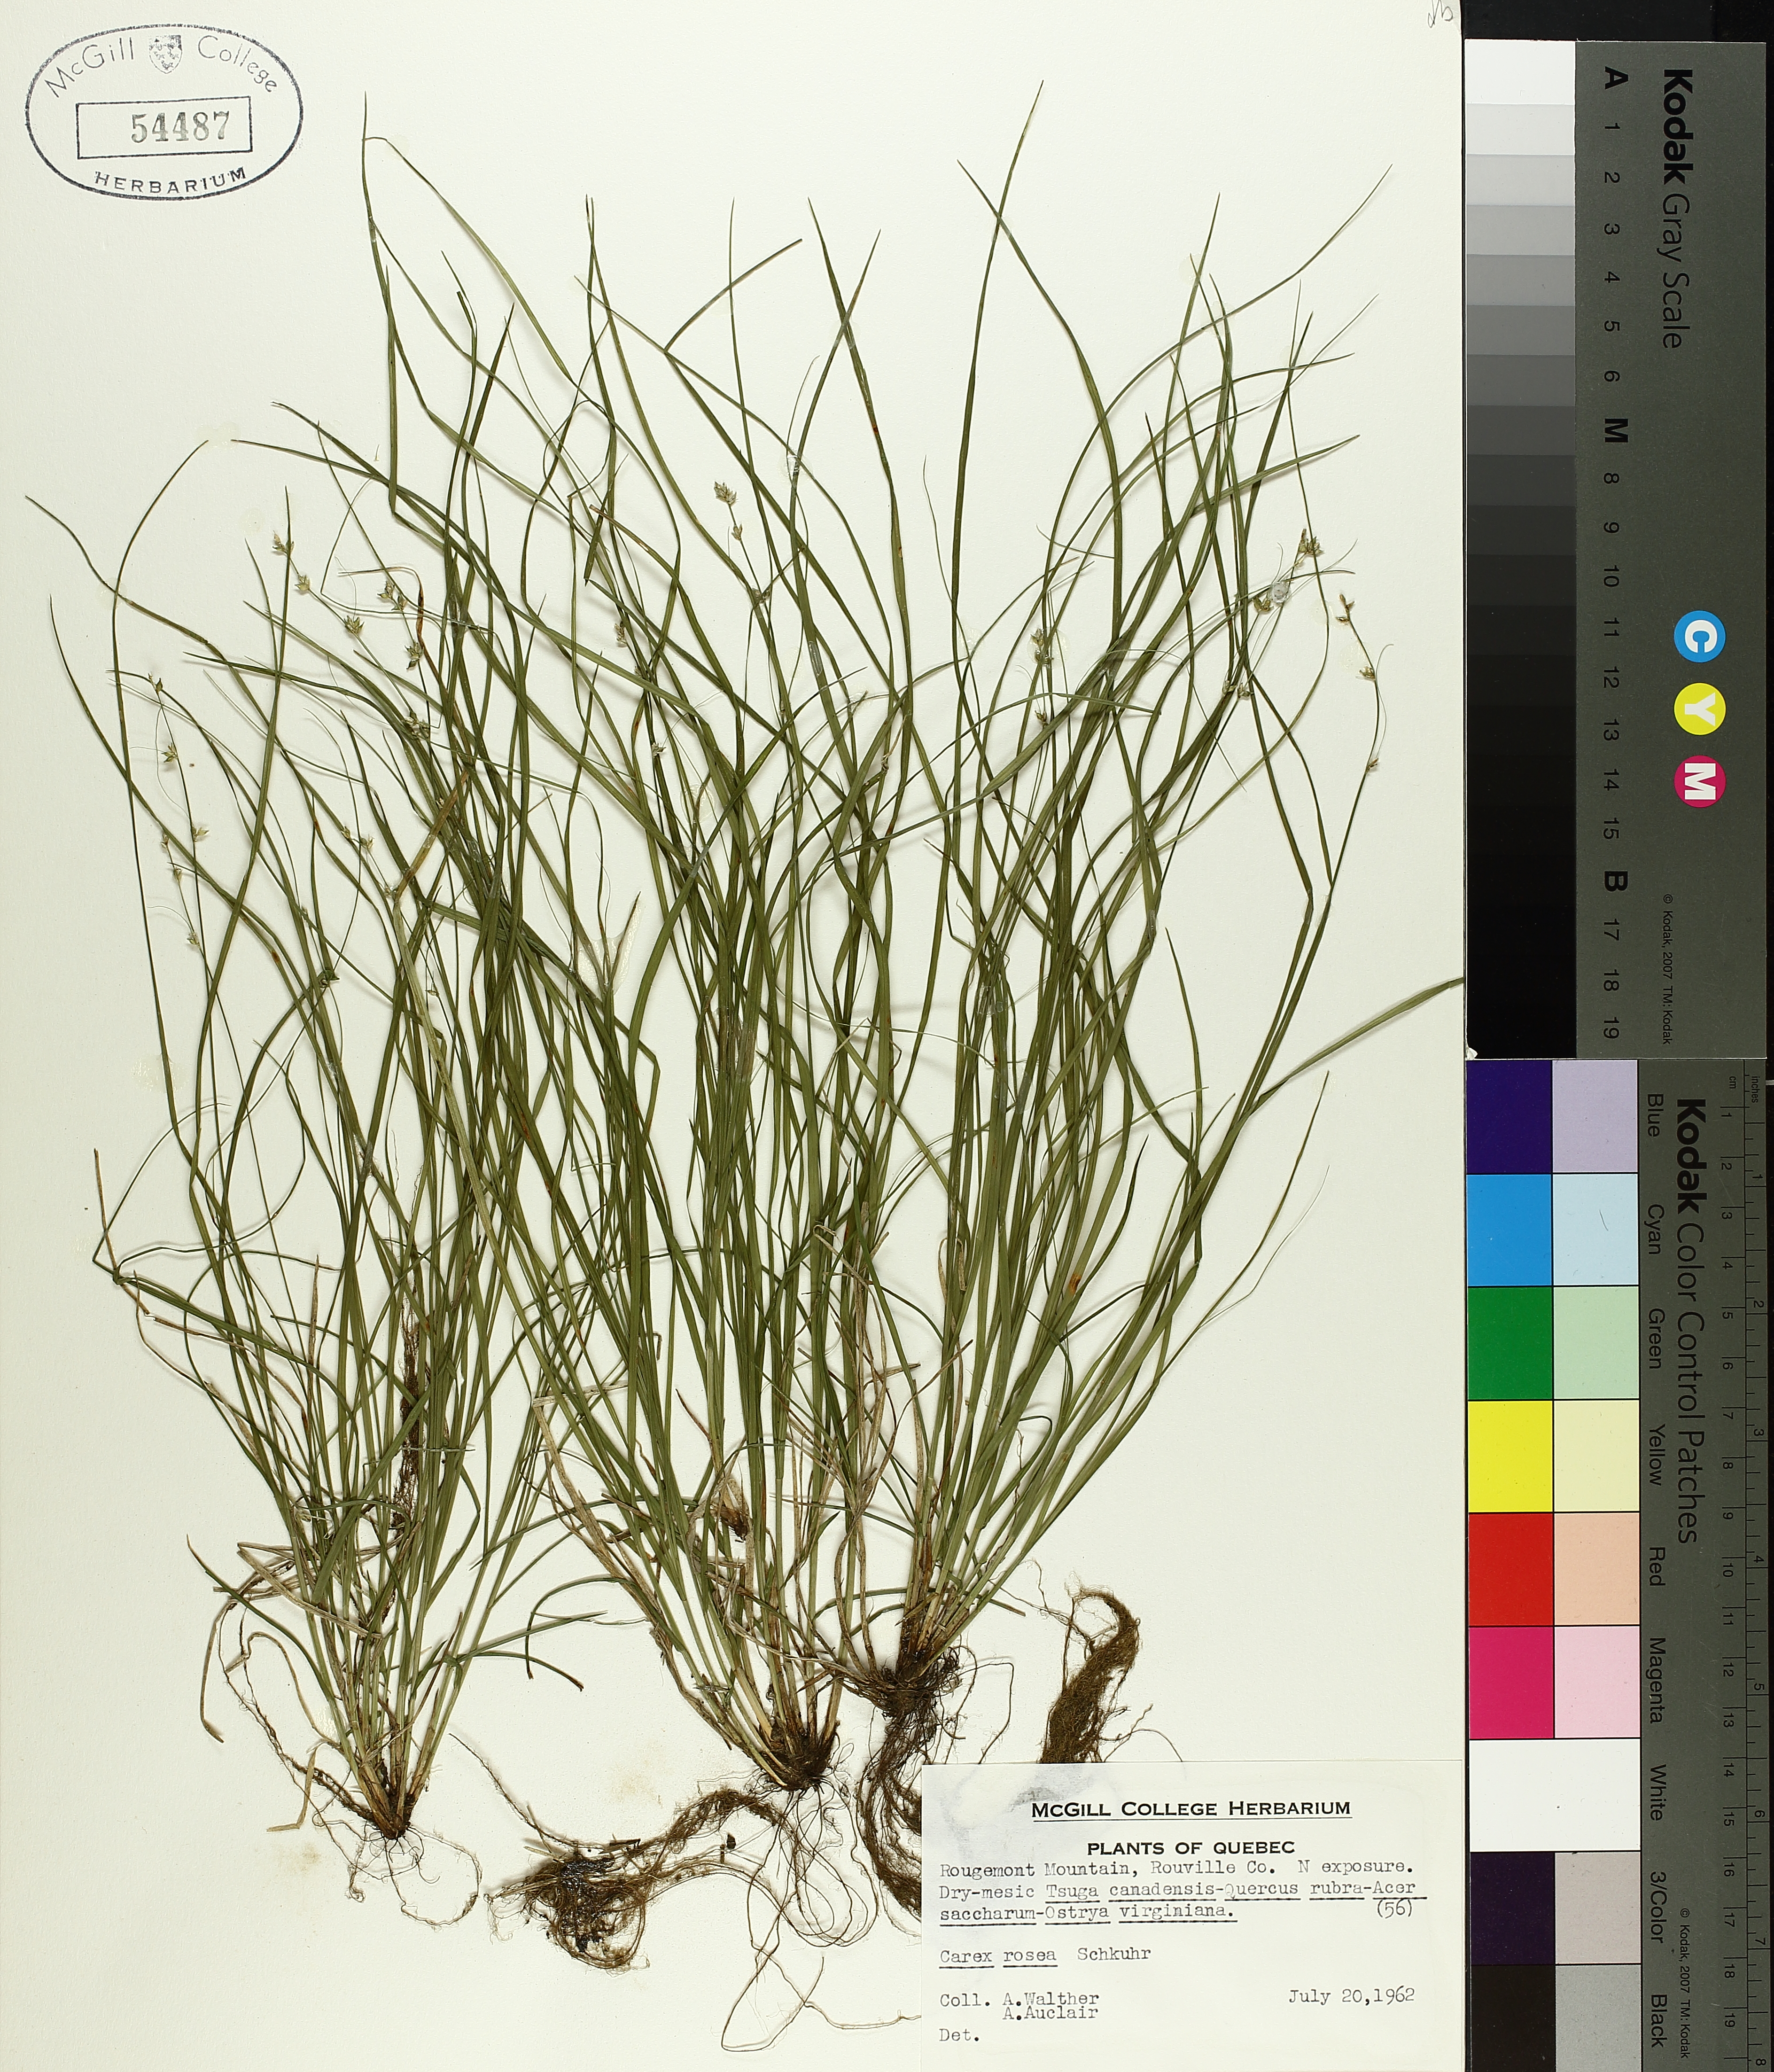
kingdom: Plantae
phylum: Tracheophyta
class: Liliopsida
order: Poales
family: Cyperaceae
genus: Carex
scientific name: Carex rosea
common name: Curly-styled wood sedge
